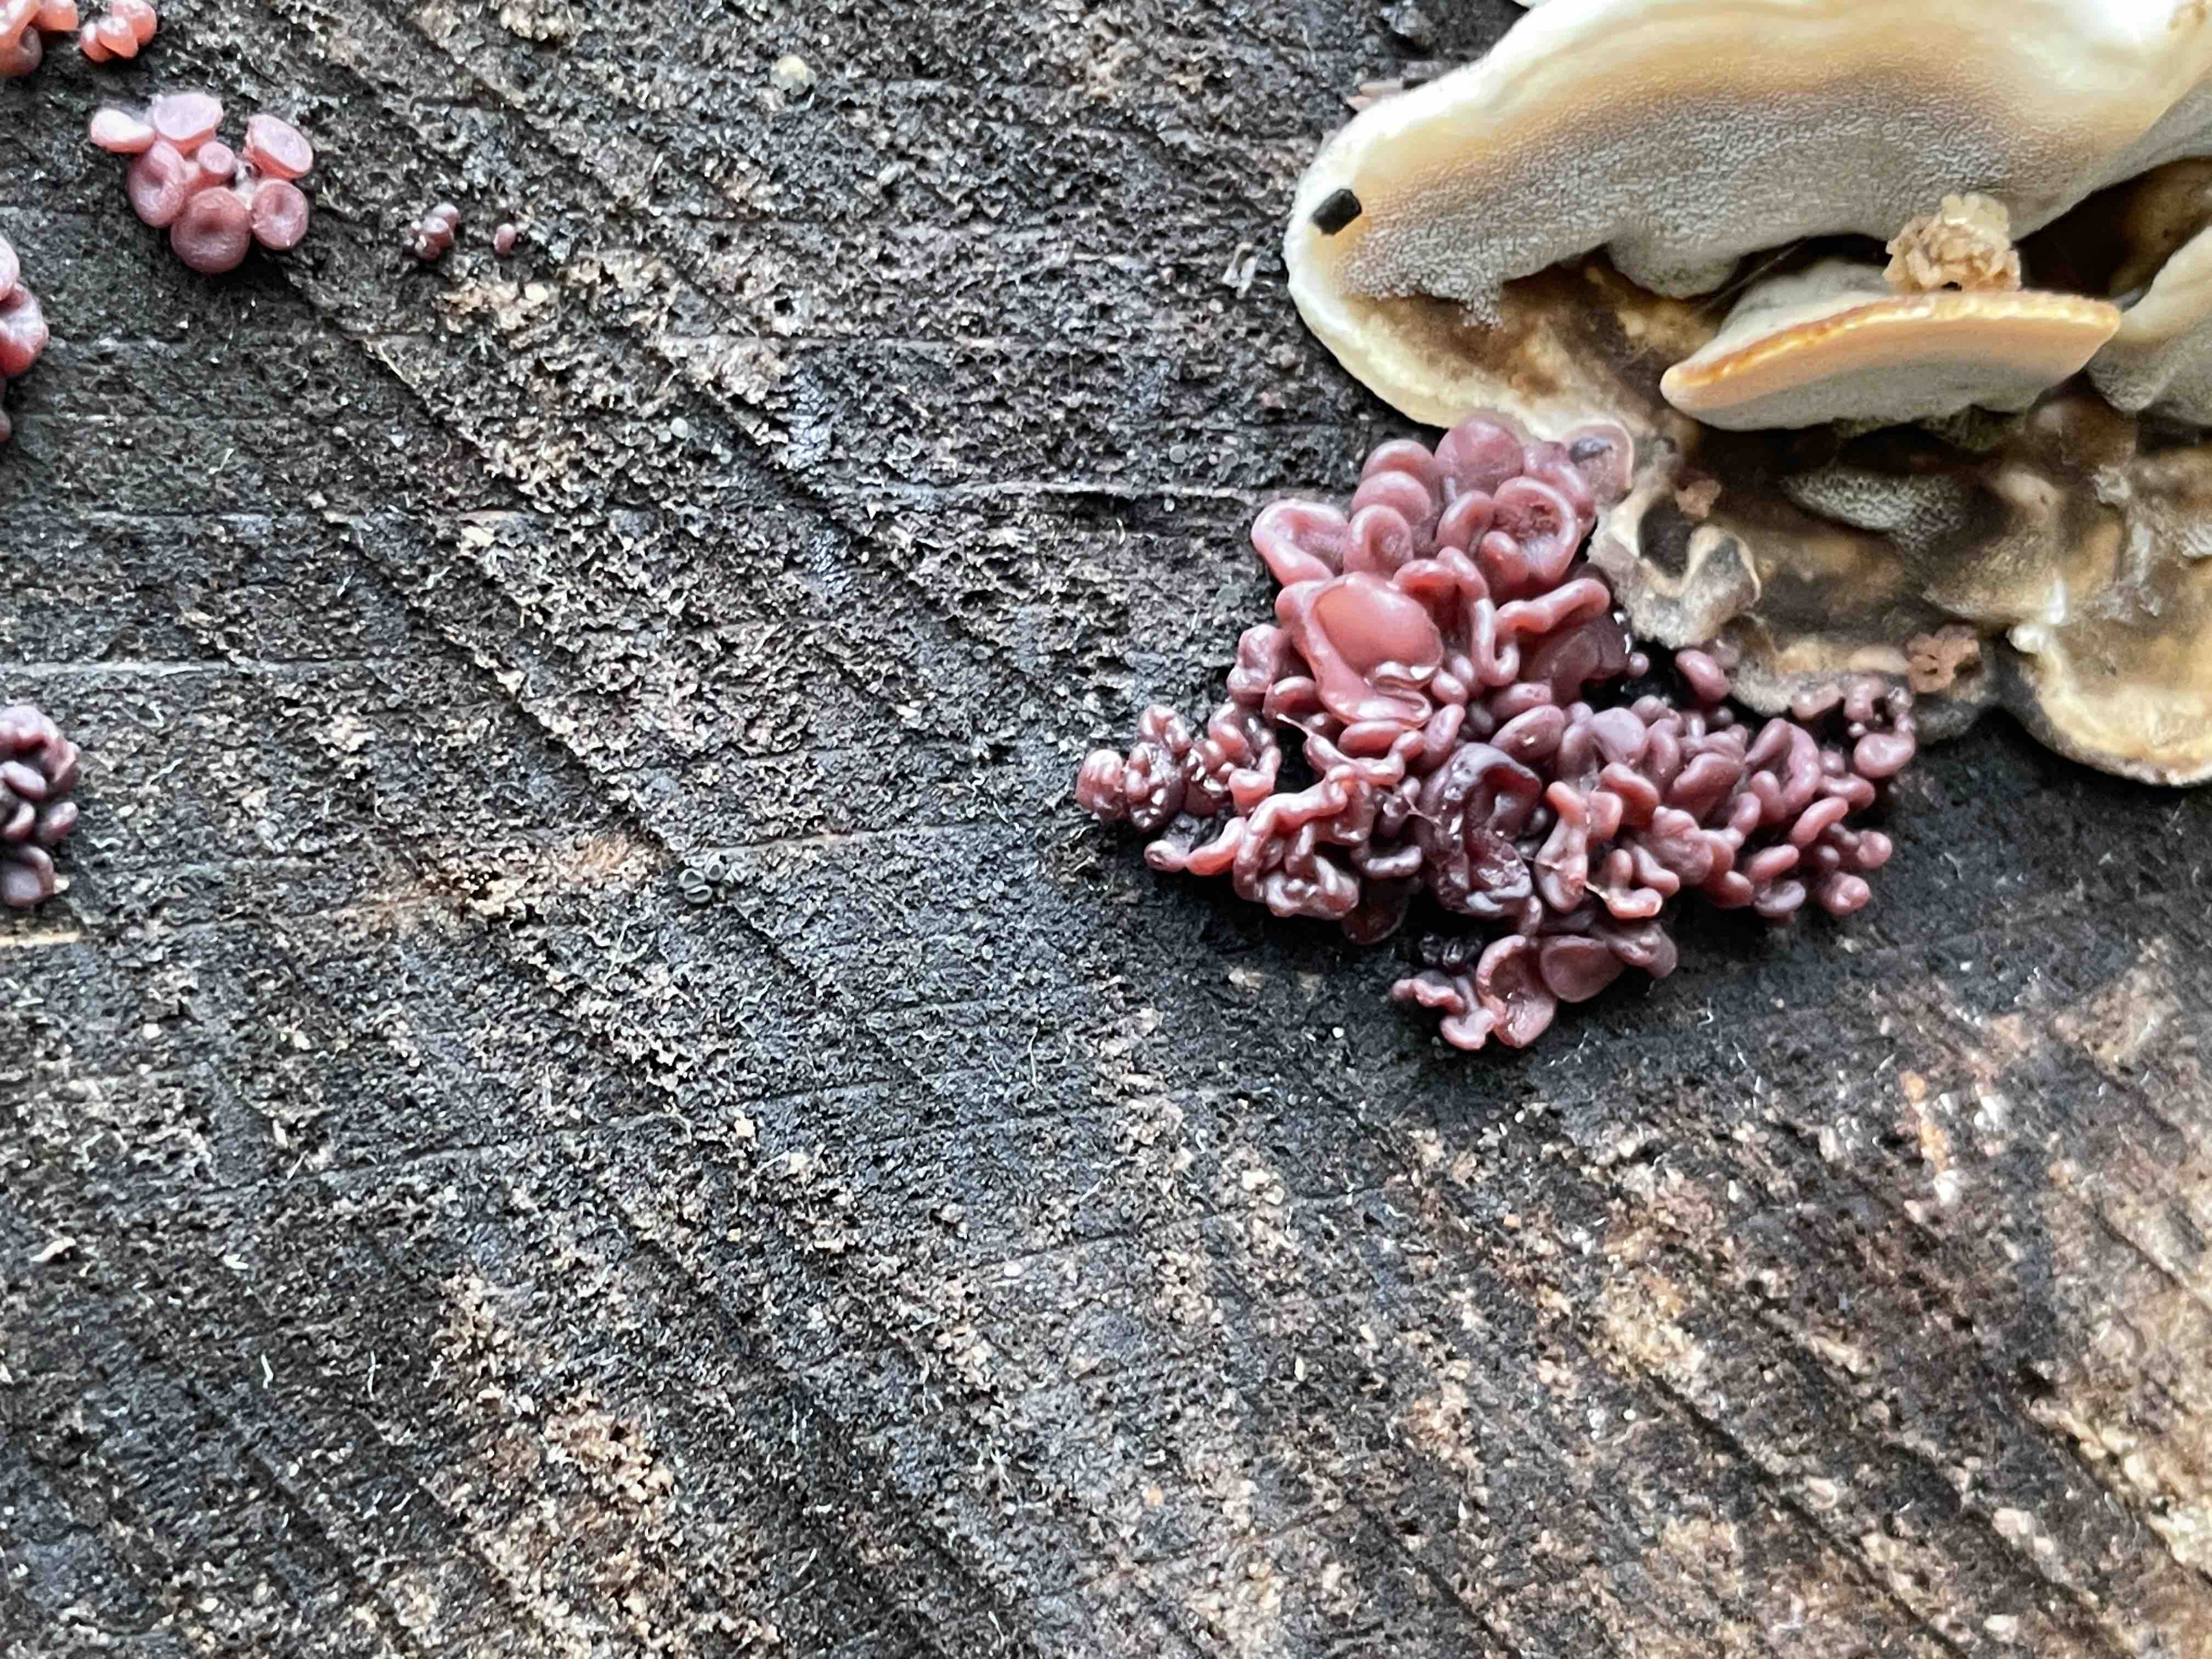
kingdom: Fungi
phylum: Ascomycota
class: Leotiomycetes
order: Helotiales
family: Gelatinodiscaceae
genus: Ascocoryne
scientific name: Ascocoryne sarcoides
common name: rødlilla sejskive
